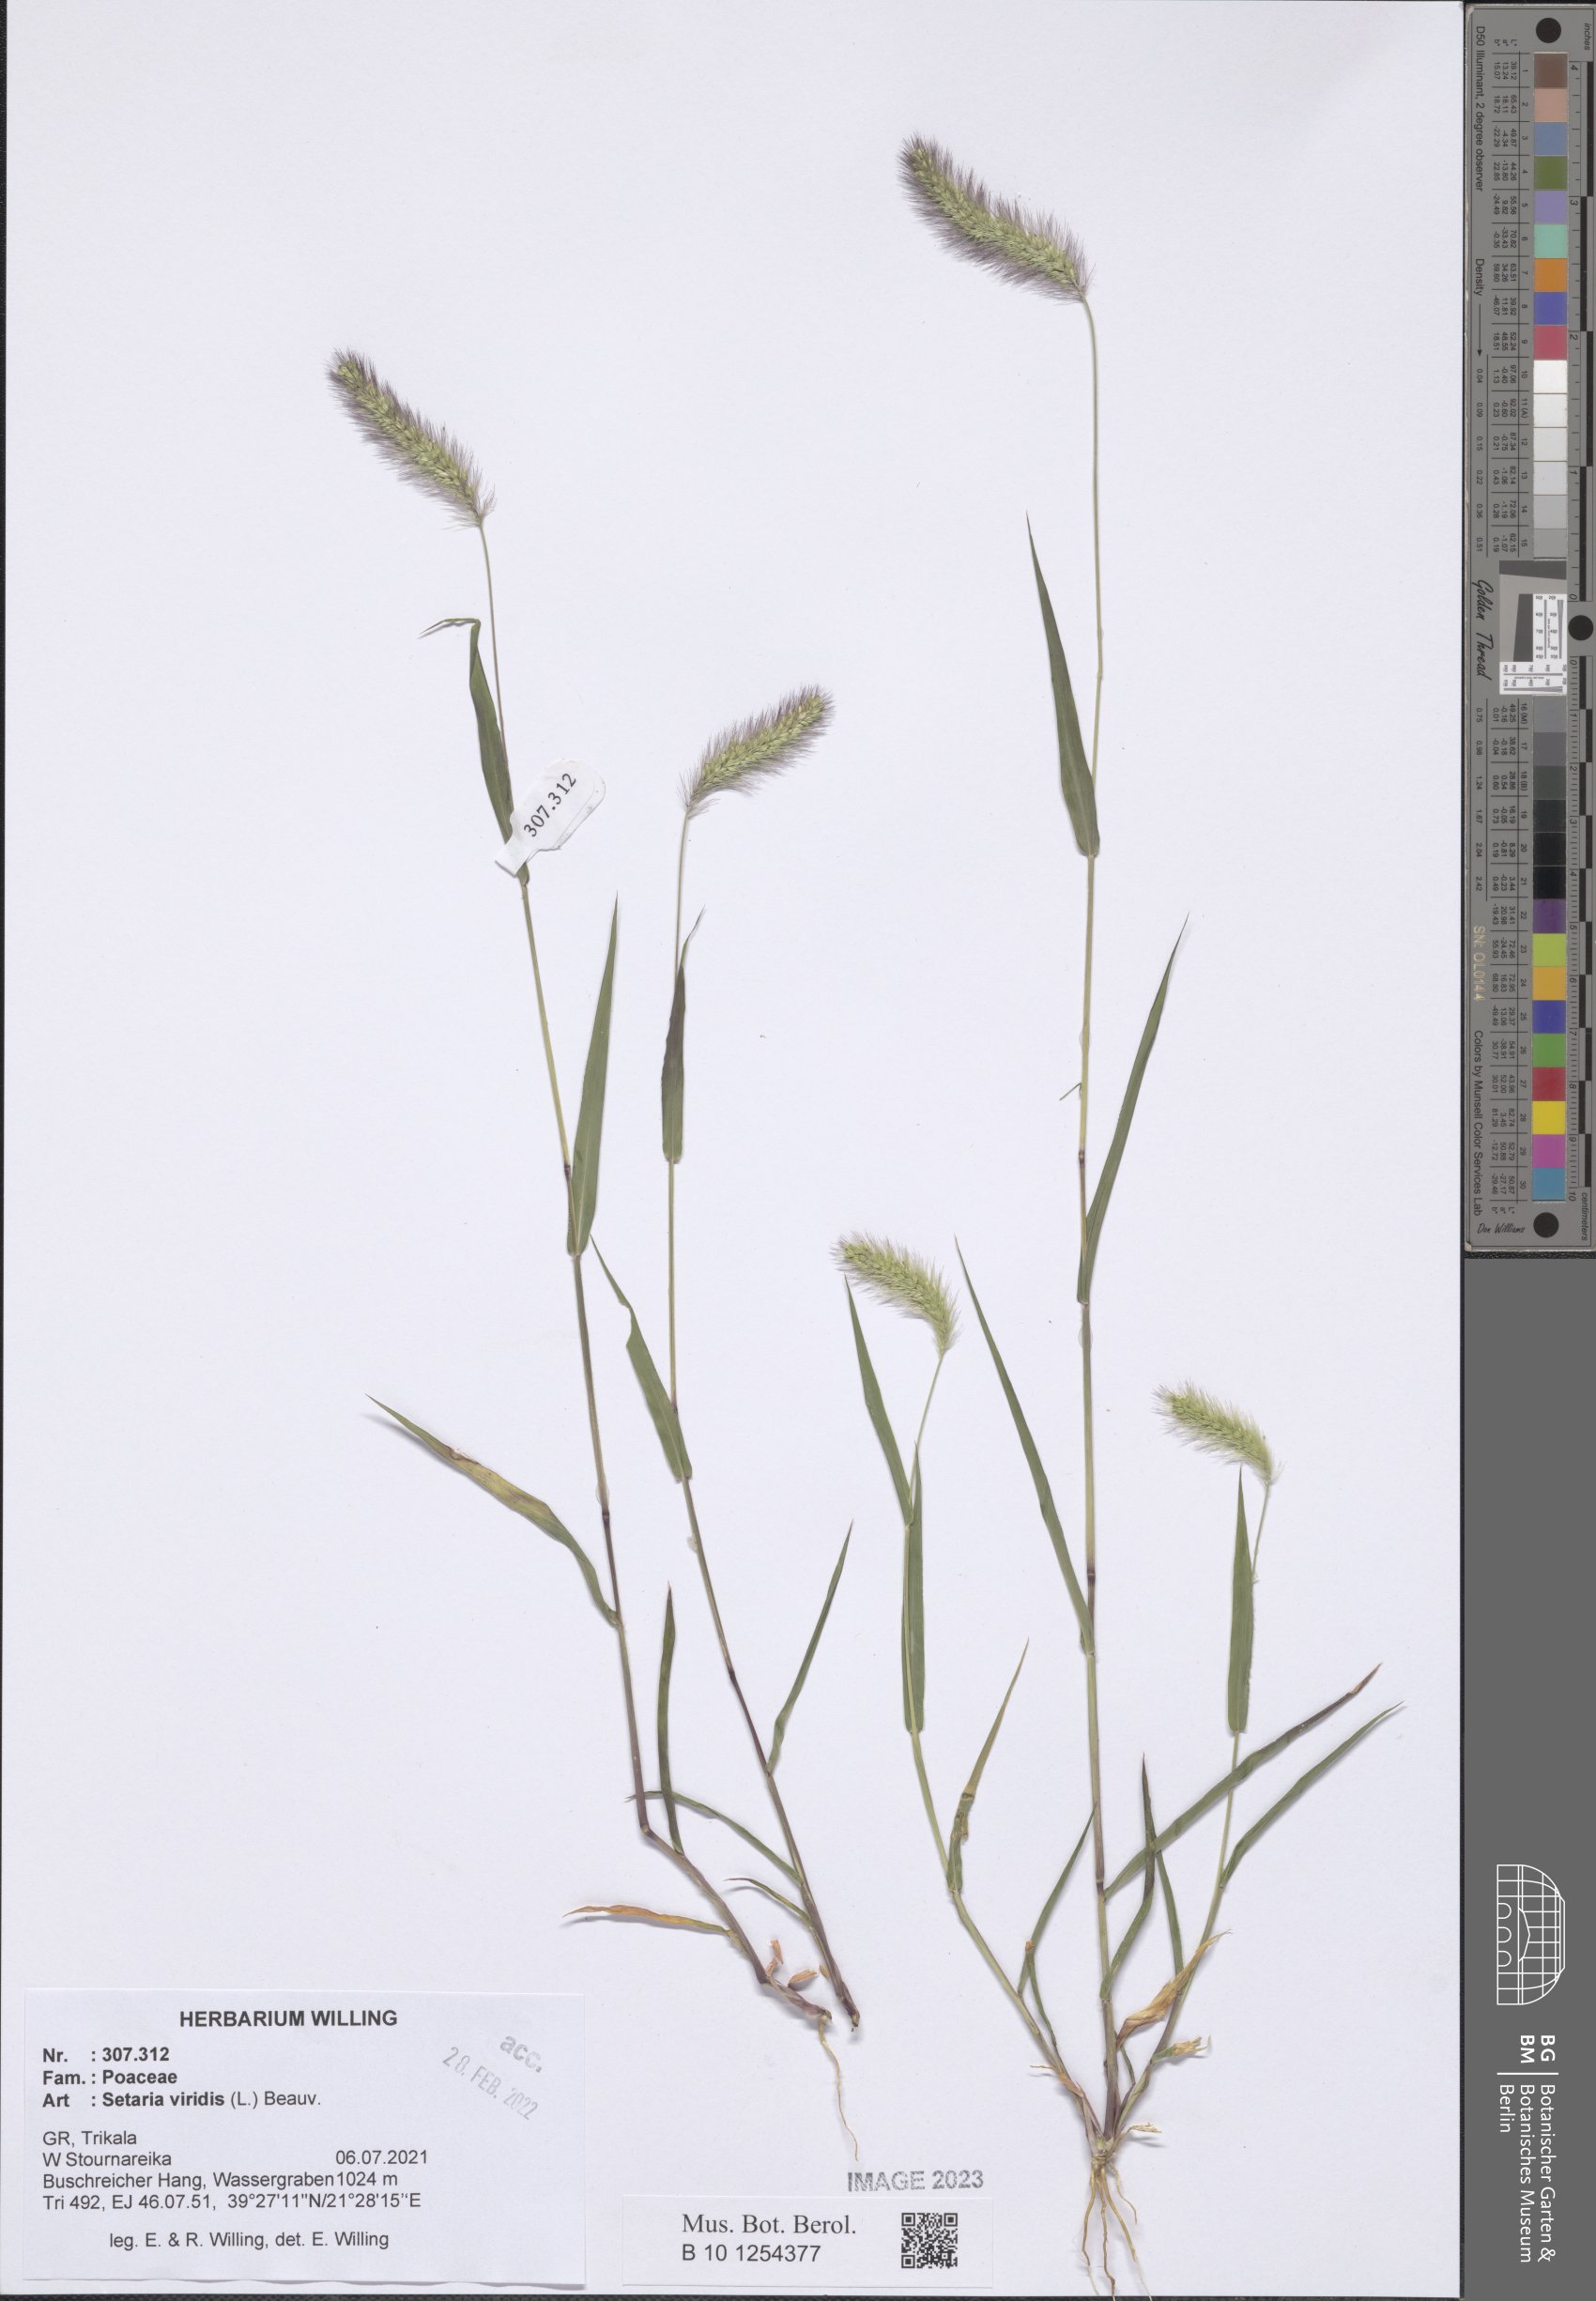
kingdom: Plantae
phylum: Tracheophyta
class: Liliopsida
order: Poales
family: Poaceae
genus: Setaria
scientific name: Setaria viridis
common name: Green bristlegrass
